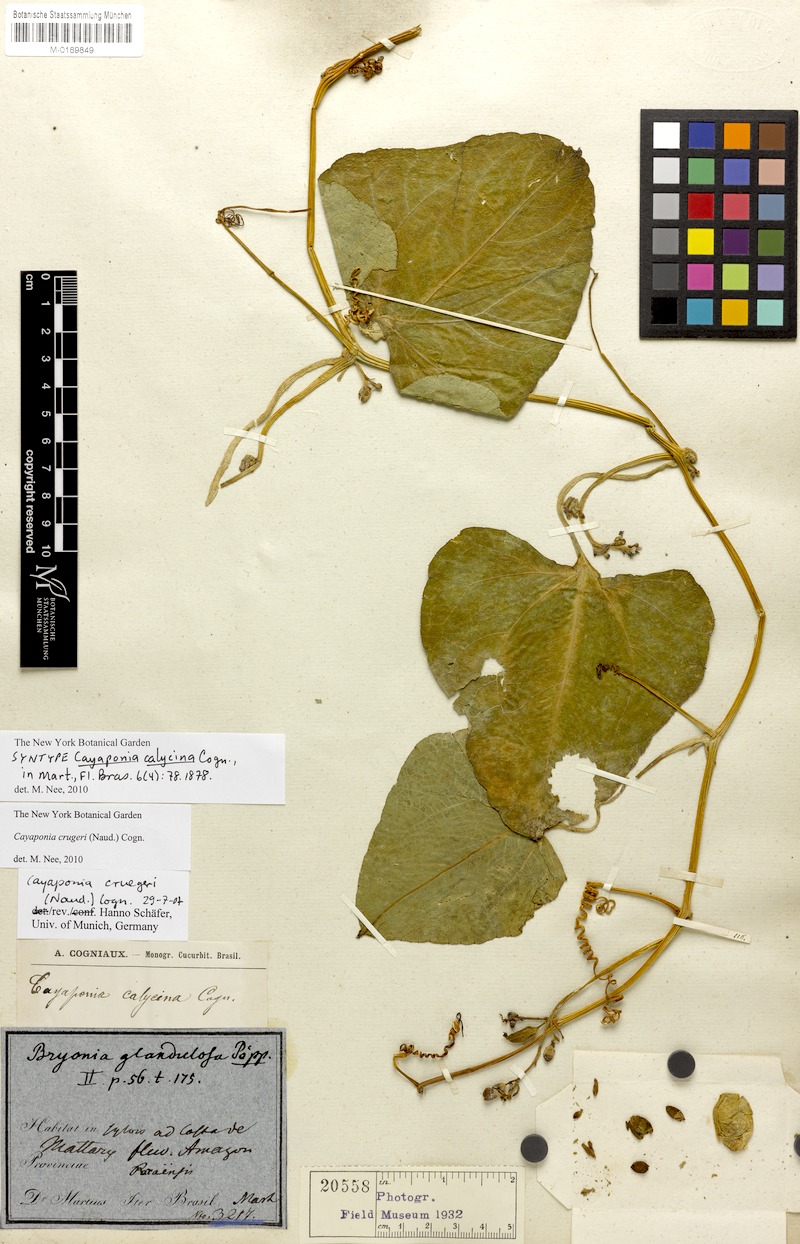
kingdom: Plantae
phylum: Tracheophyta
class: Magnoliopsida
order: Cucurbitales
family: Cucurbitaceae
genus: Cayaponia
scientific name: Cayaponia crugeri
